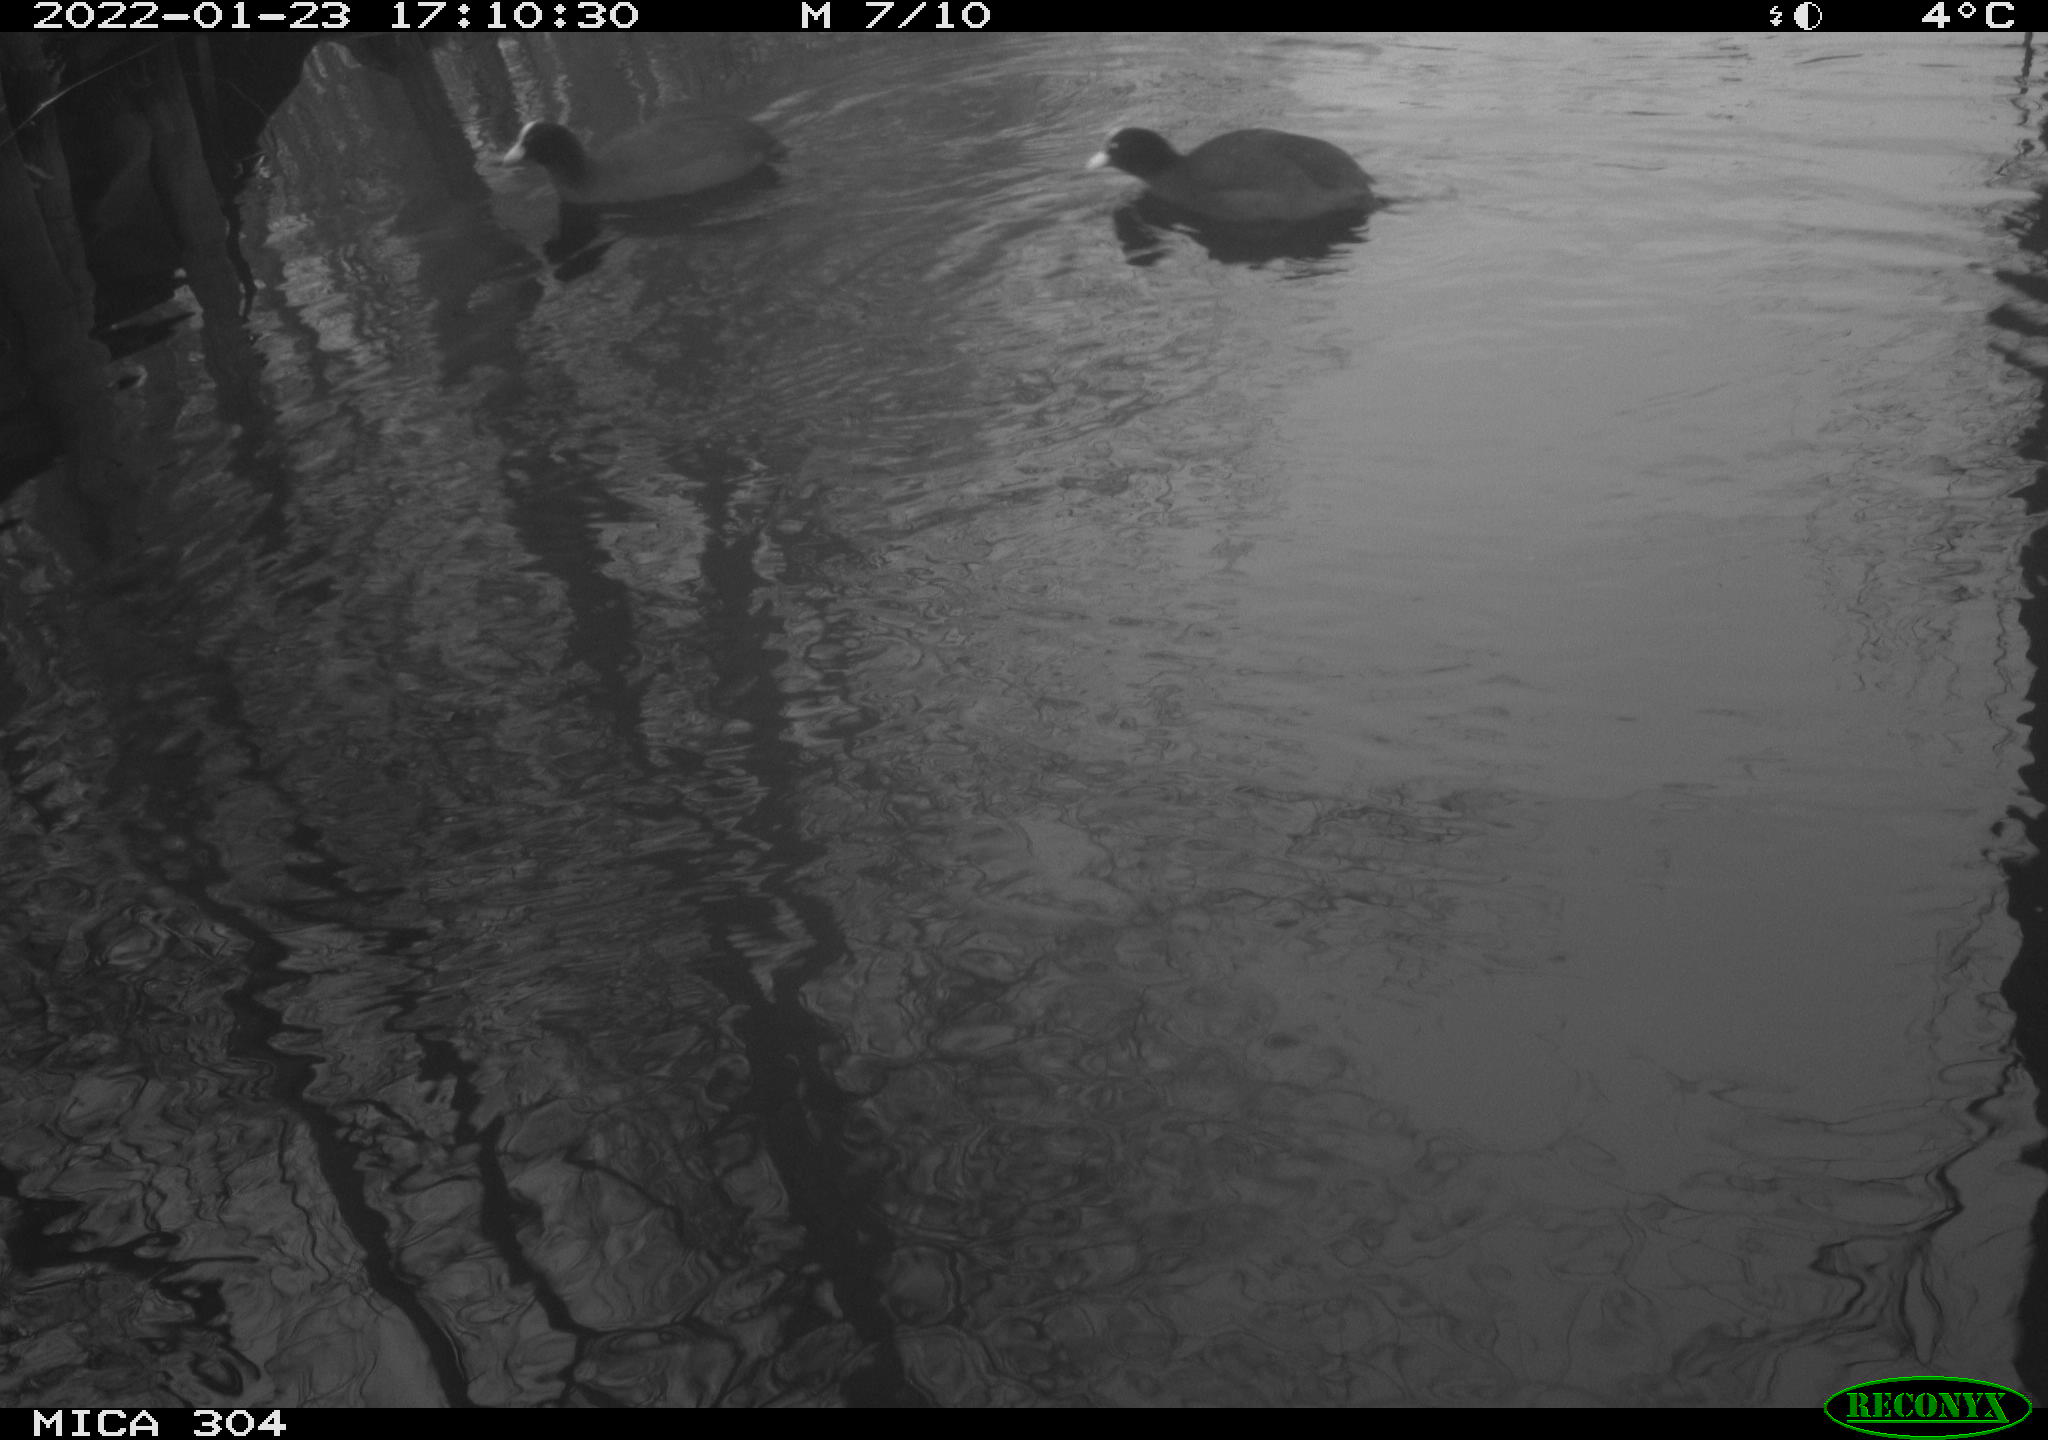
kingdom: Animalia
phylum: Chordata
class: Aves
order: Gruiformes
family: Rallidae
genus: Fulica
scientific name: Fulica atra
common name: Eurasian coot
